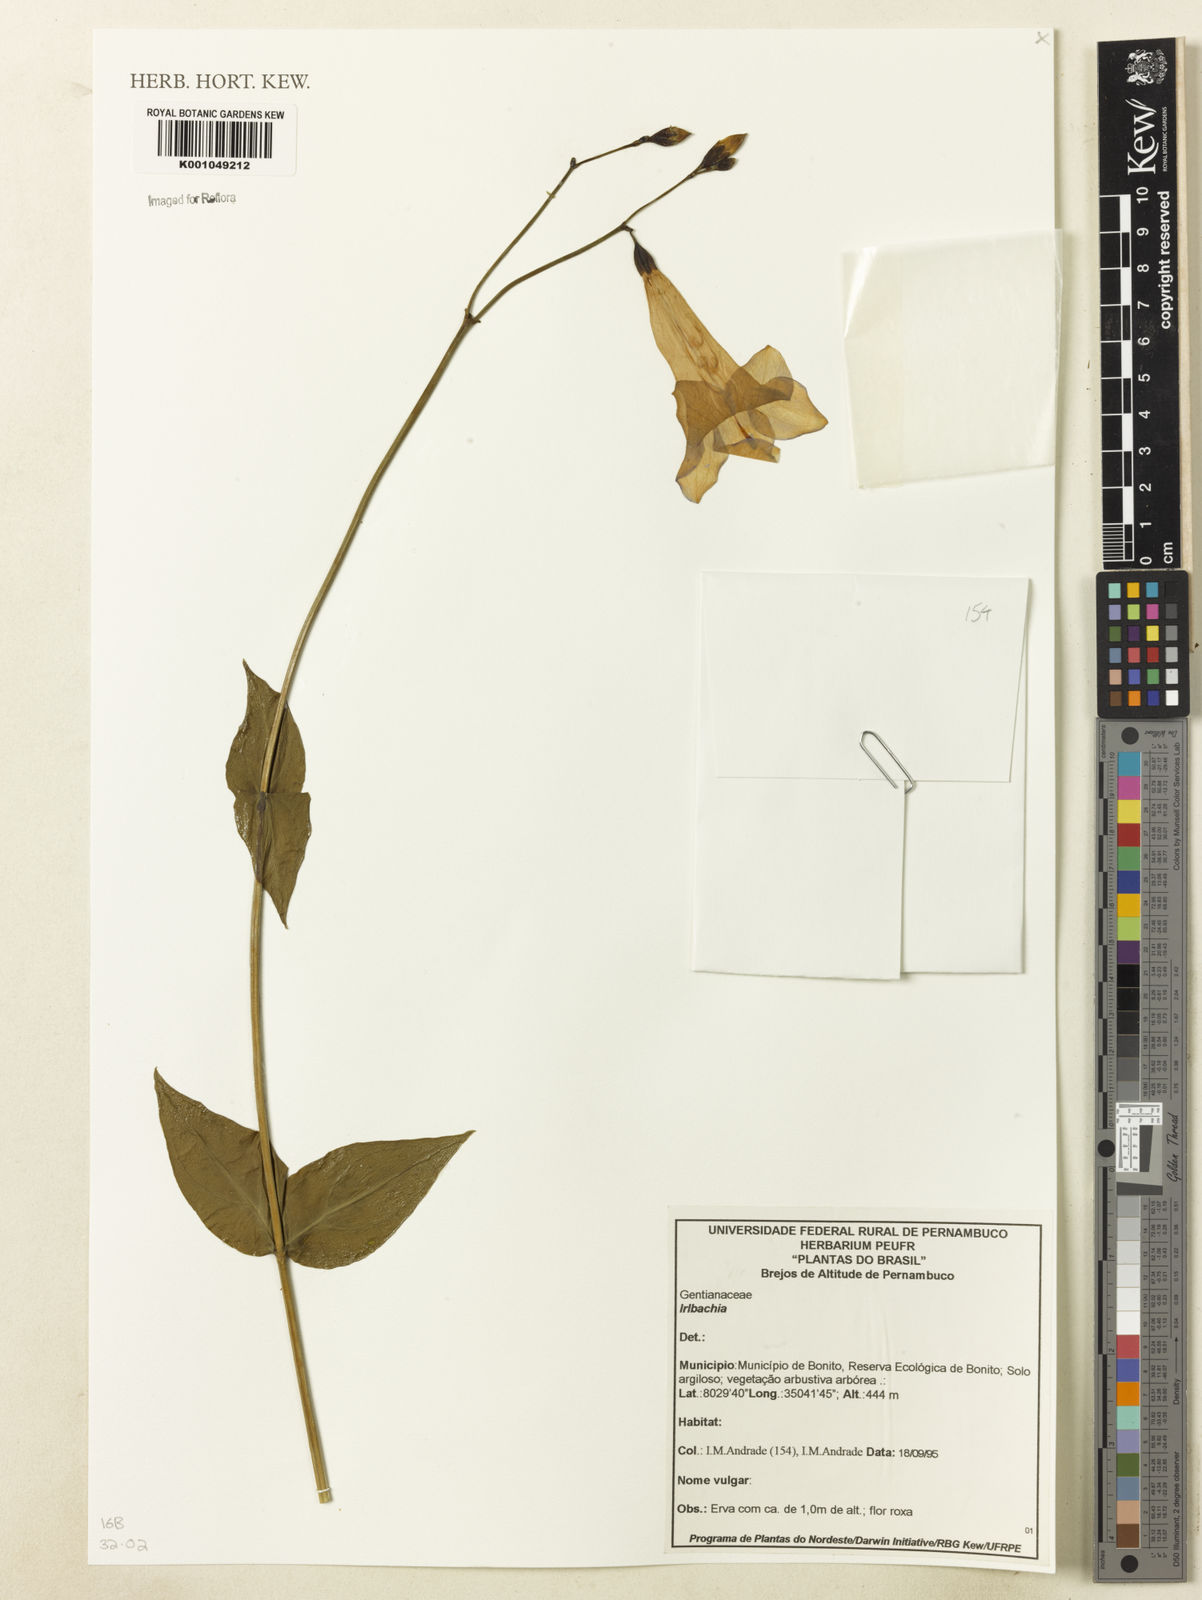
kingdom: Plantae
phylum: Tracheophyta
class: Magnoliopsida
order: Gentianales
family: Gentianaceae
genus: Irlbachia
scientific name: Irlbachia
